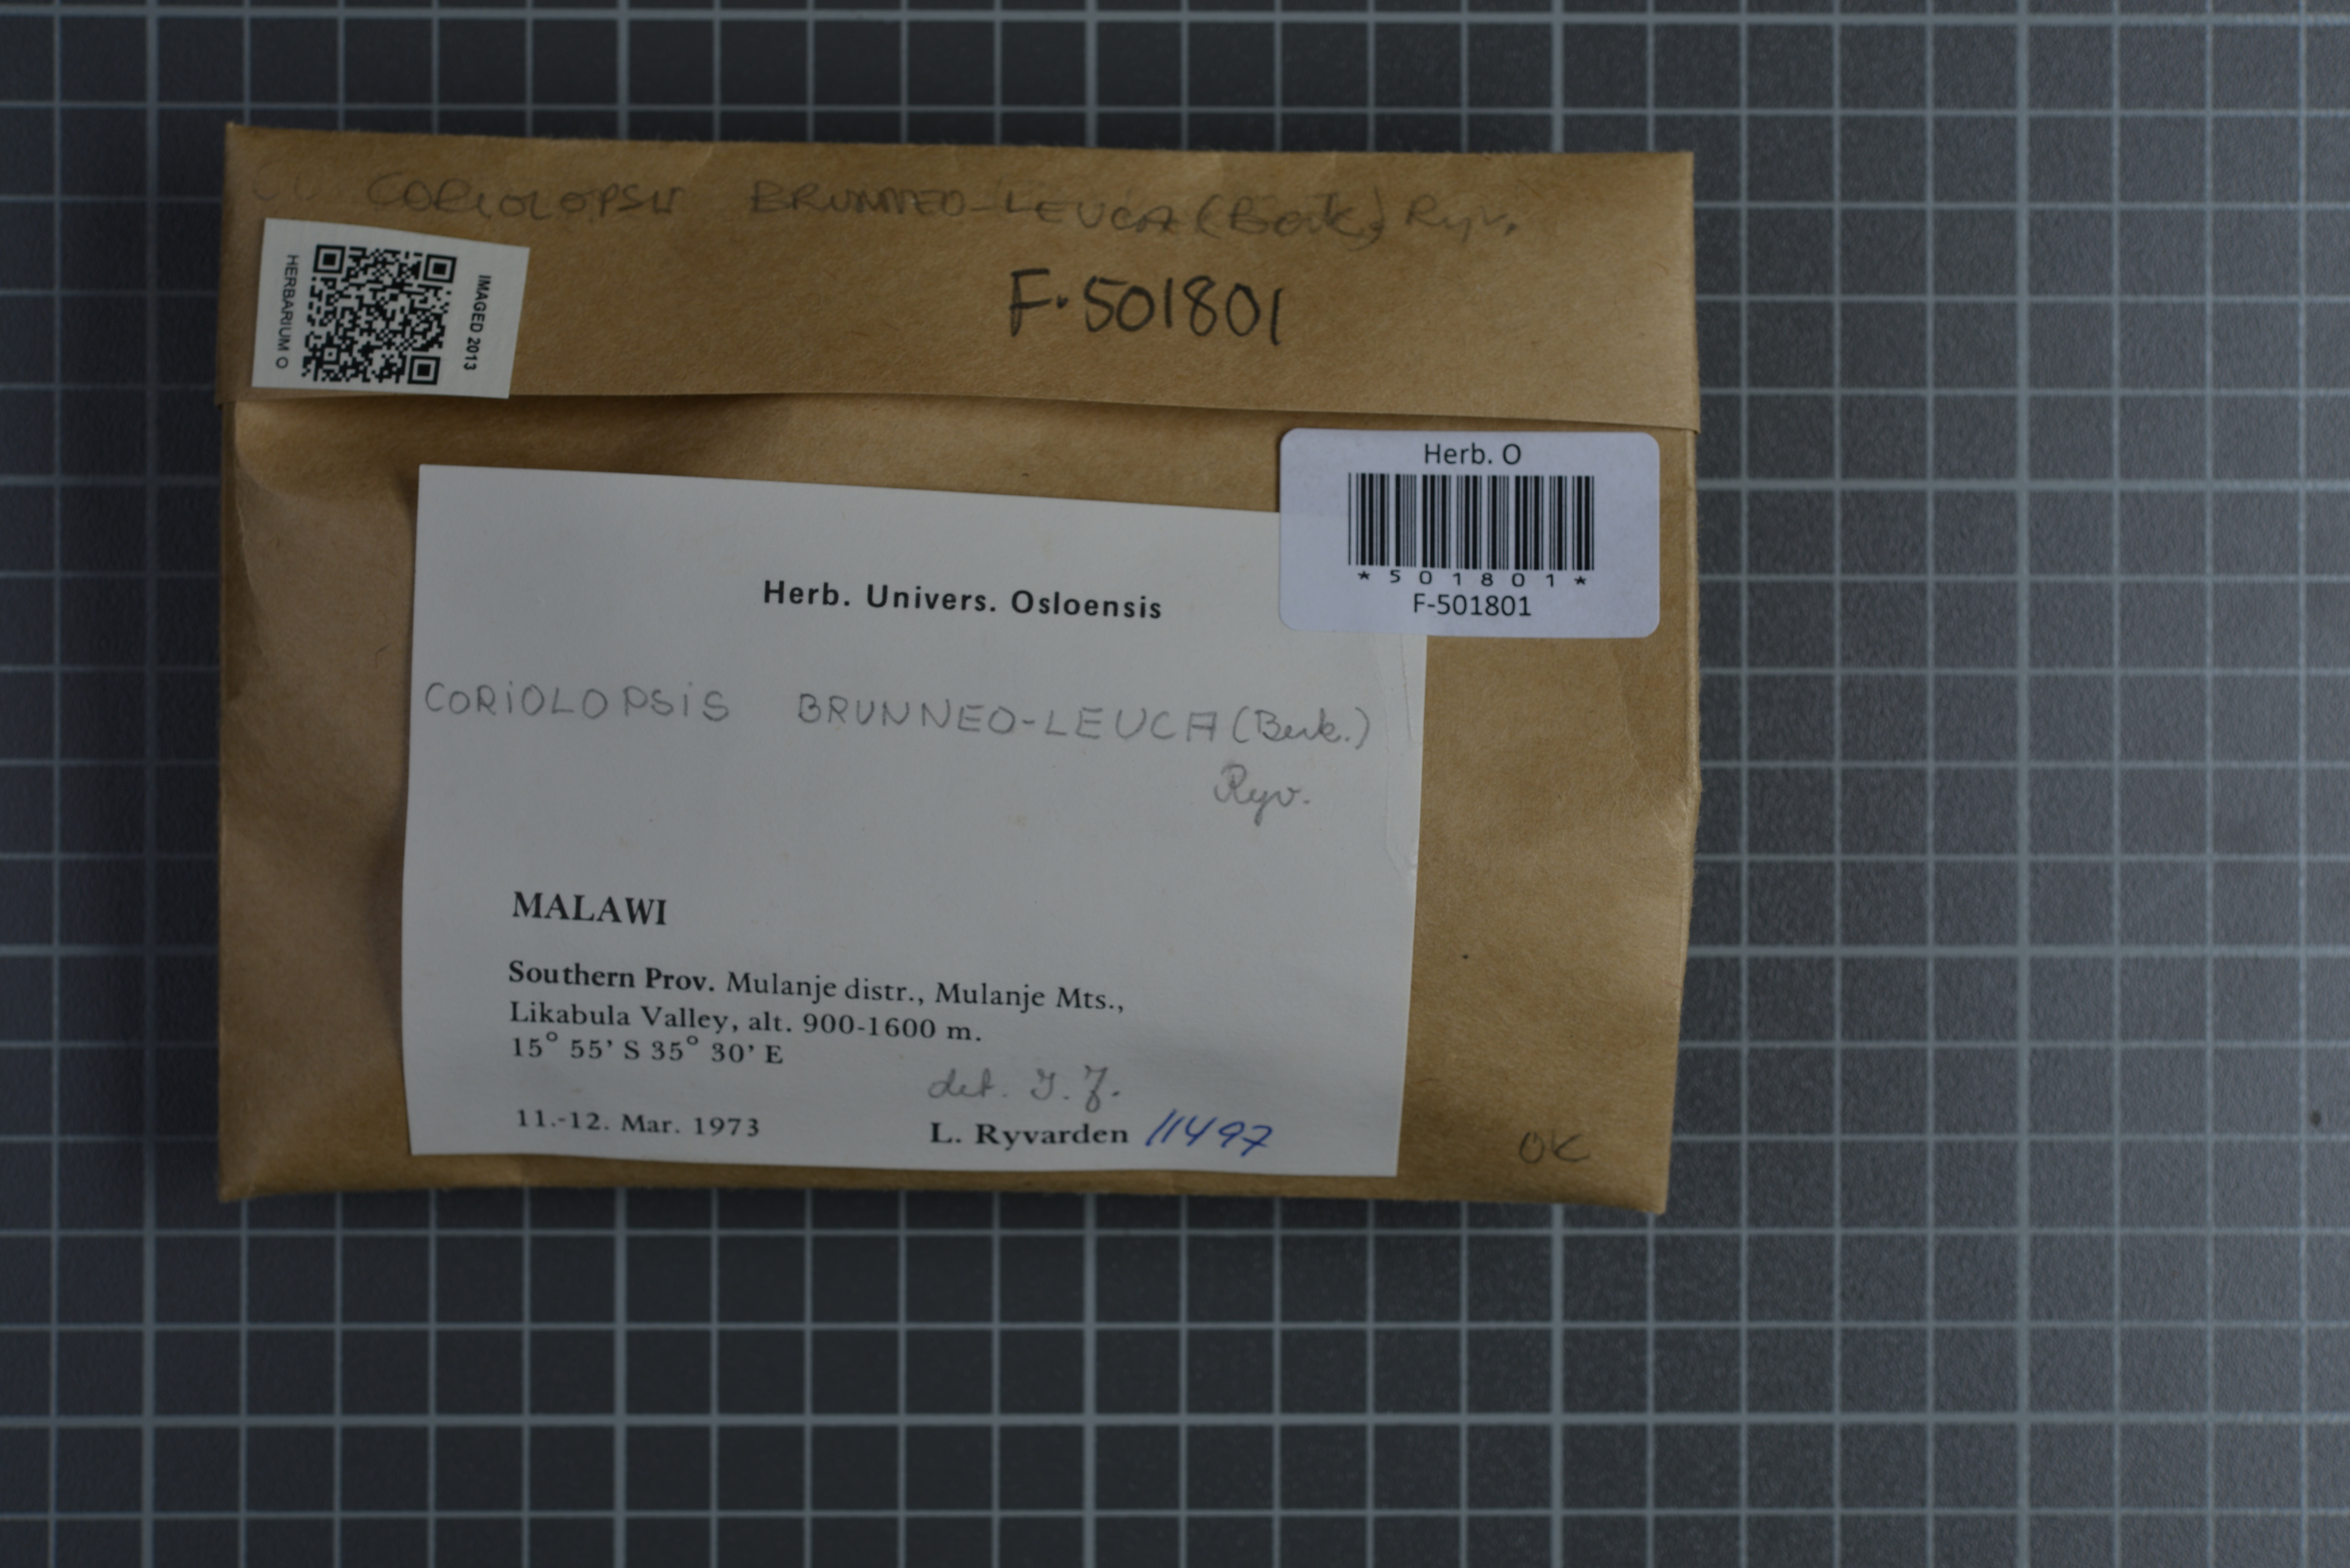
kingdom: Fungi
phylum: Basidiomycota
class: Agaricomycetes
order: Polyporales
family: Polyporaceae
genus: Coriolopsis
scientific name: Coriolopsis brunneoleuca
